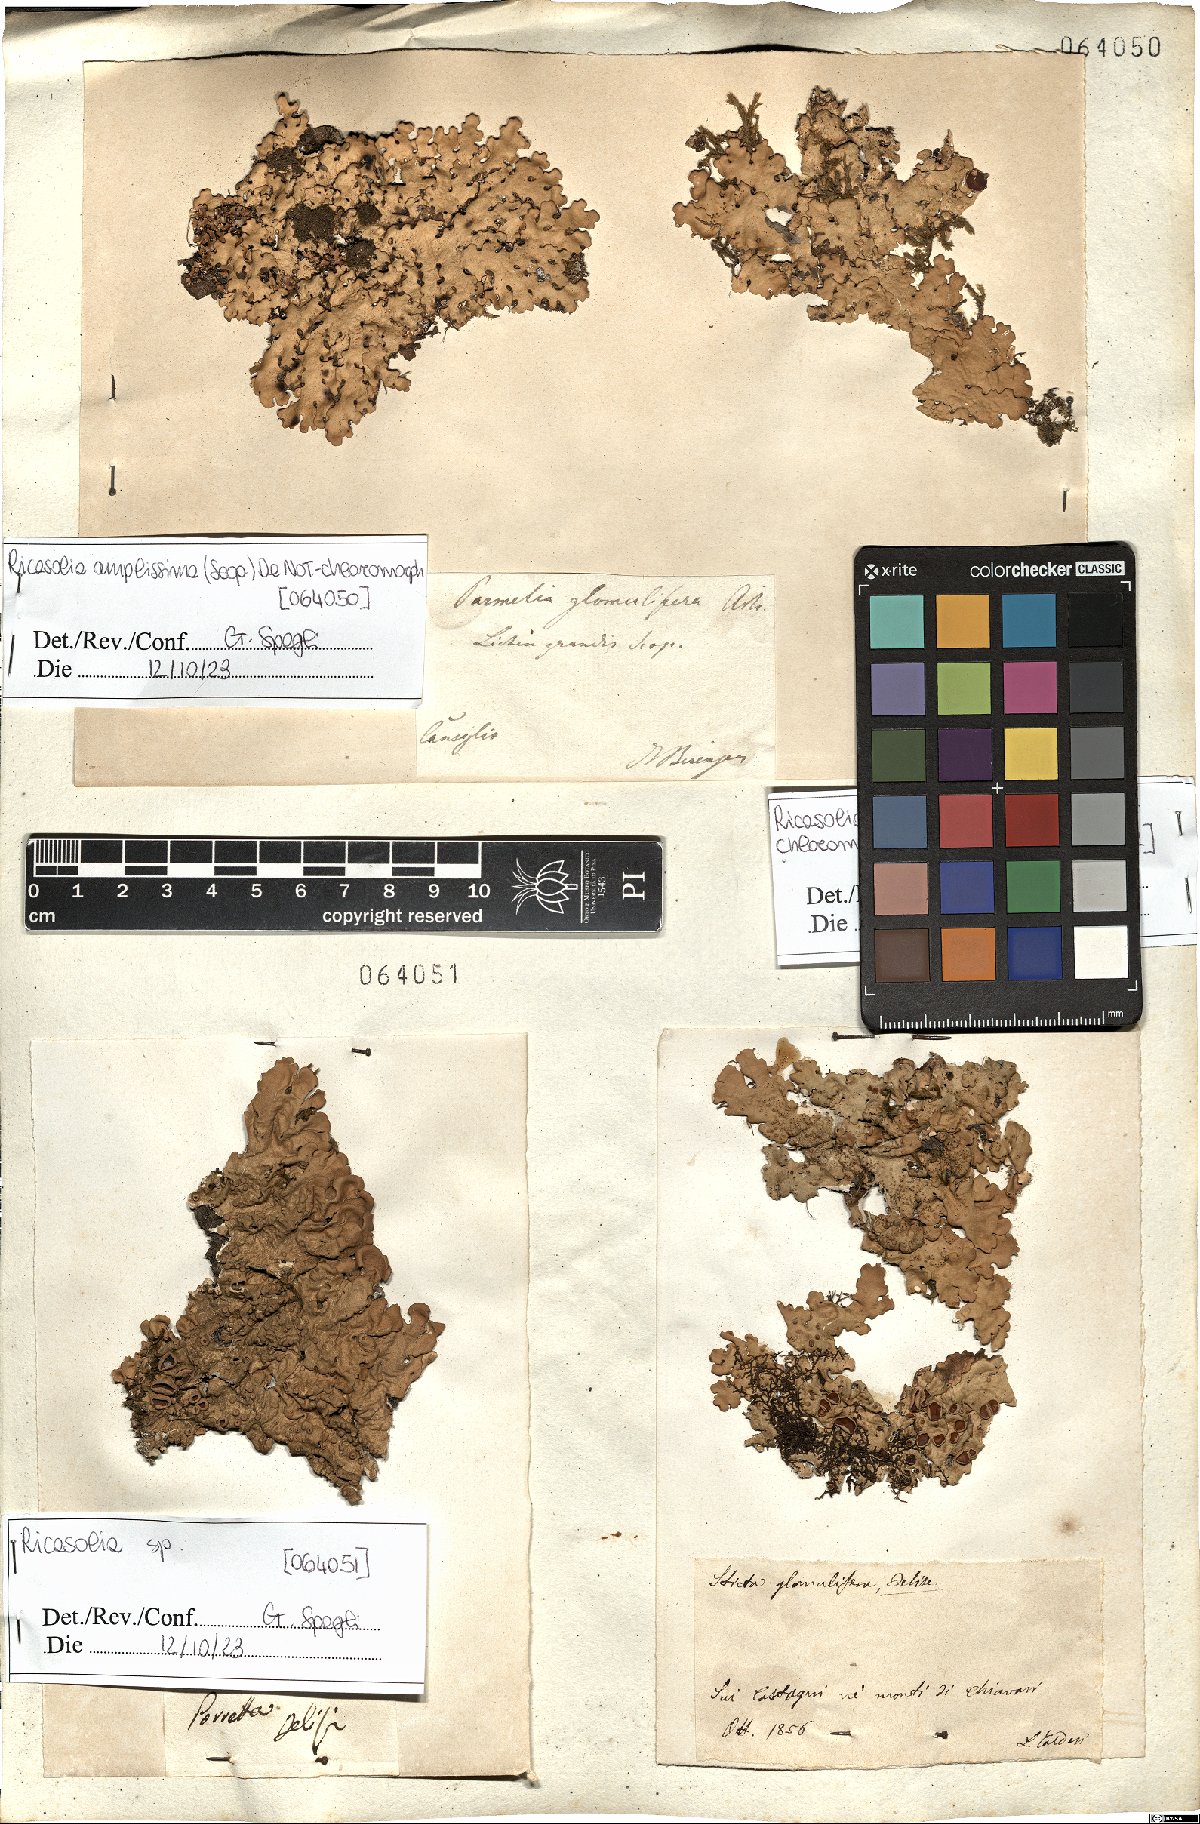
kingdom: Fungi
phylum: Ascomycota
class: Lecanoromycetes
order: Peltigerales
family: Lobariaceae
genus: Ricasolia
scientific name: Ricasolia amplissima
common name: Giant candlewax lichen
